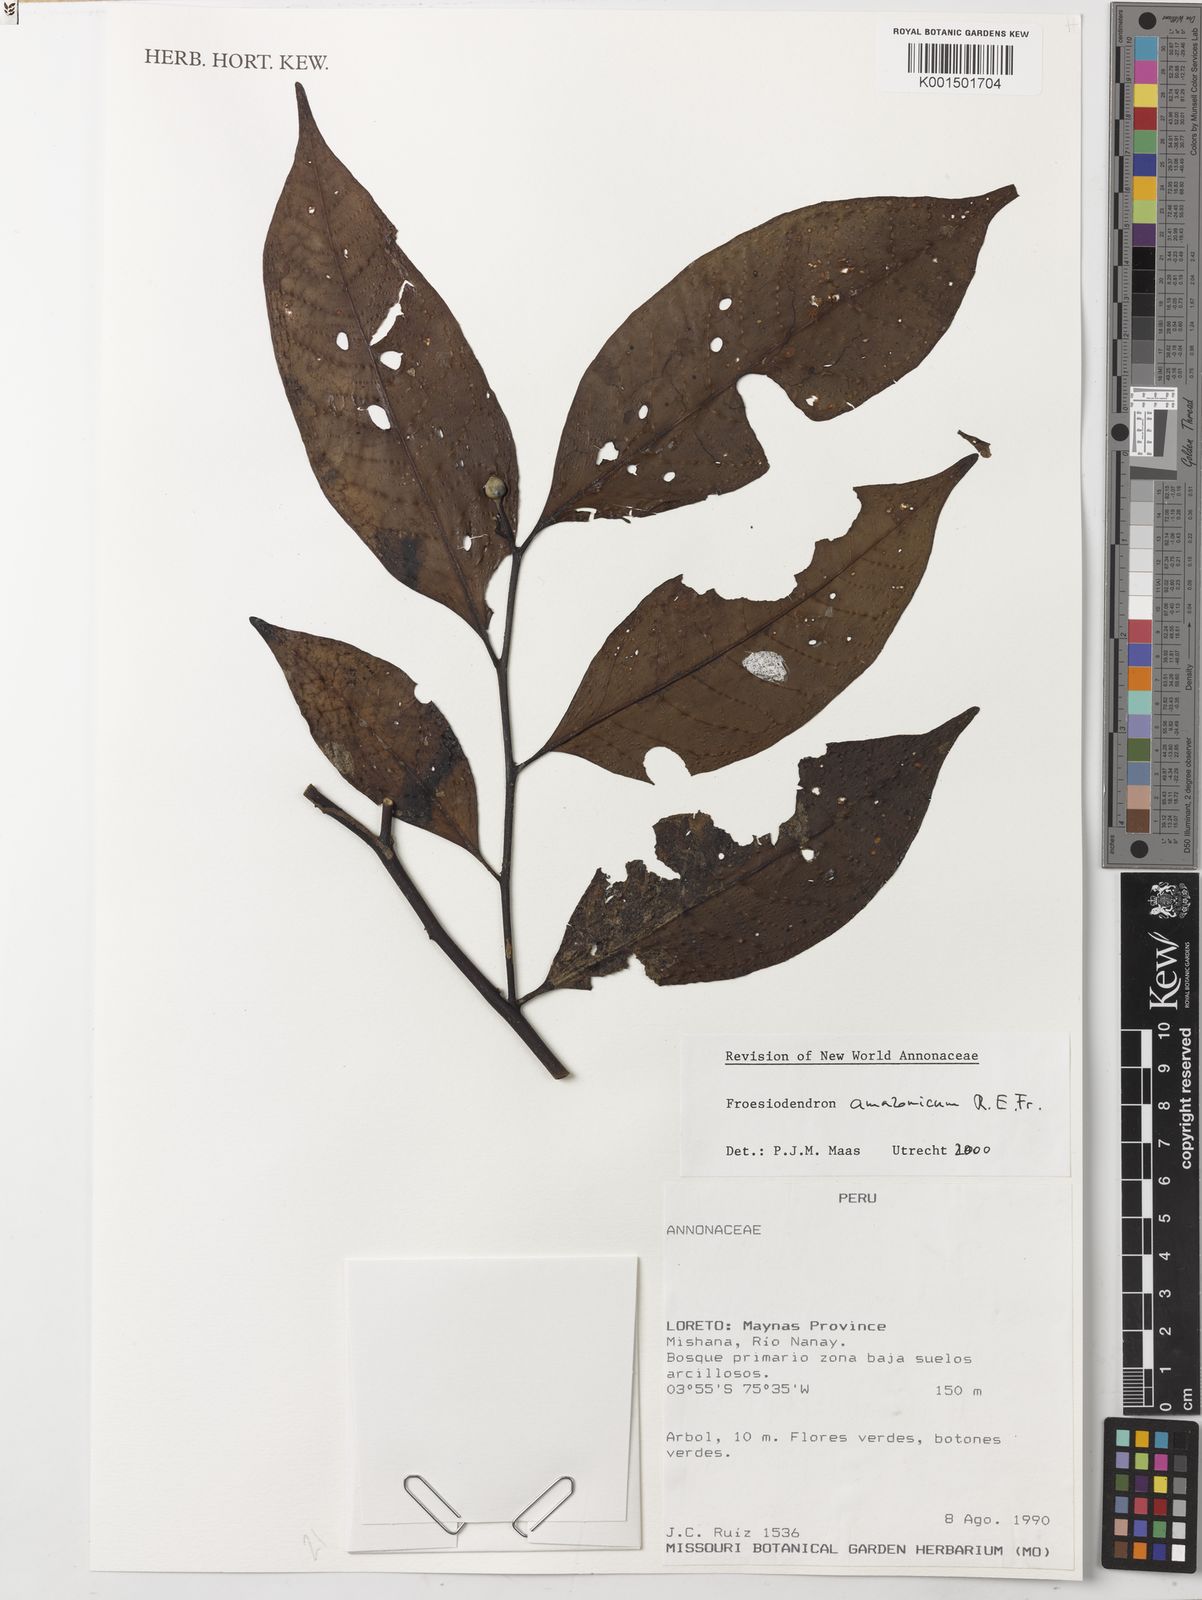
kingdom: Plantae
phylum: Tracheophyta
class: Magnoliopsida
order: Magnoliales
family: Annonaceae
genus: Froesiodendron
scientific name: Froesiodendron amazonicum
